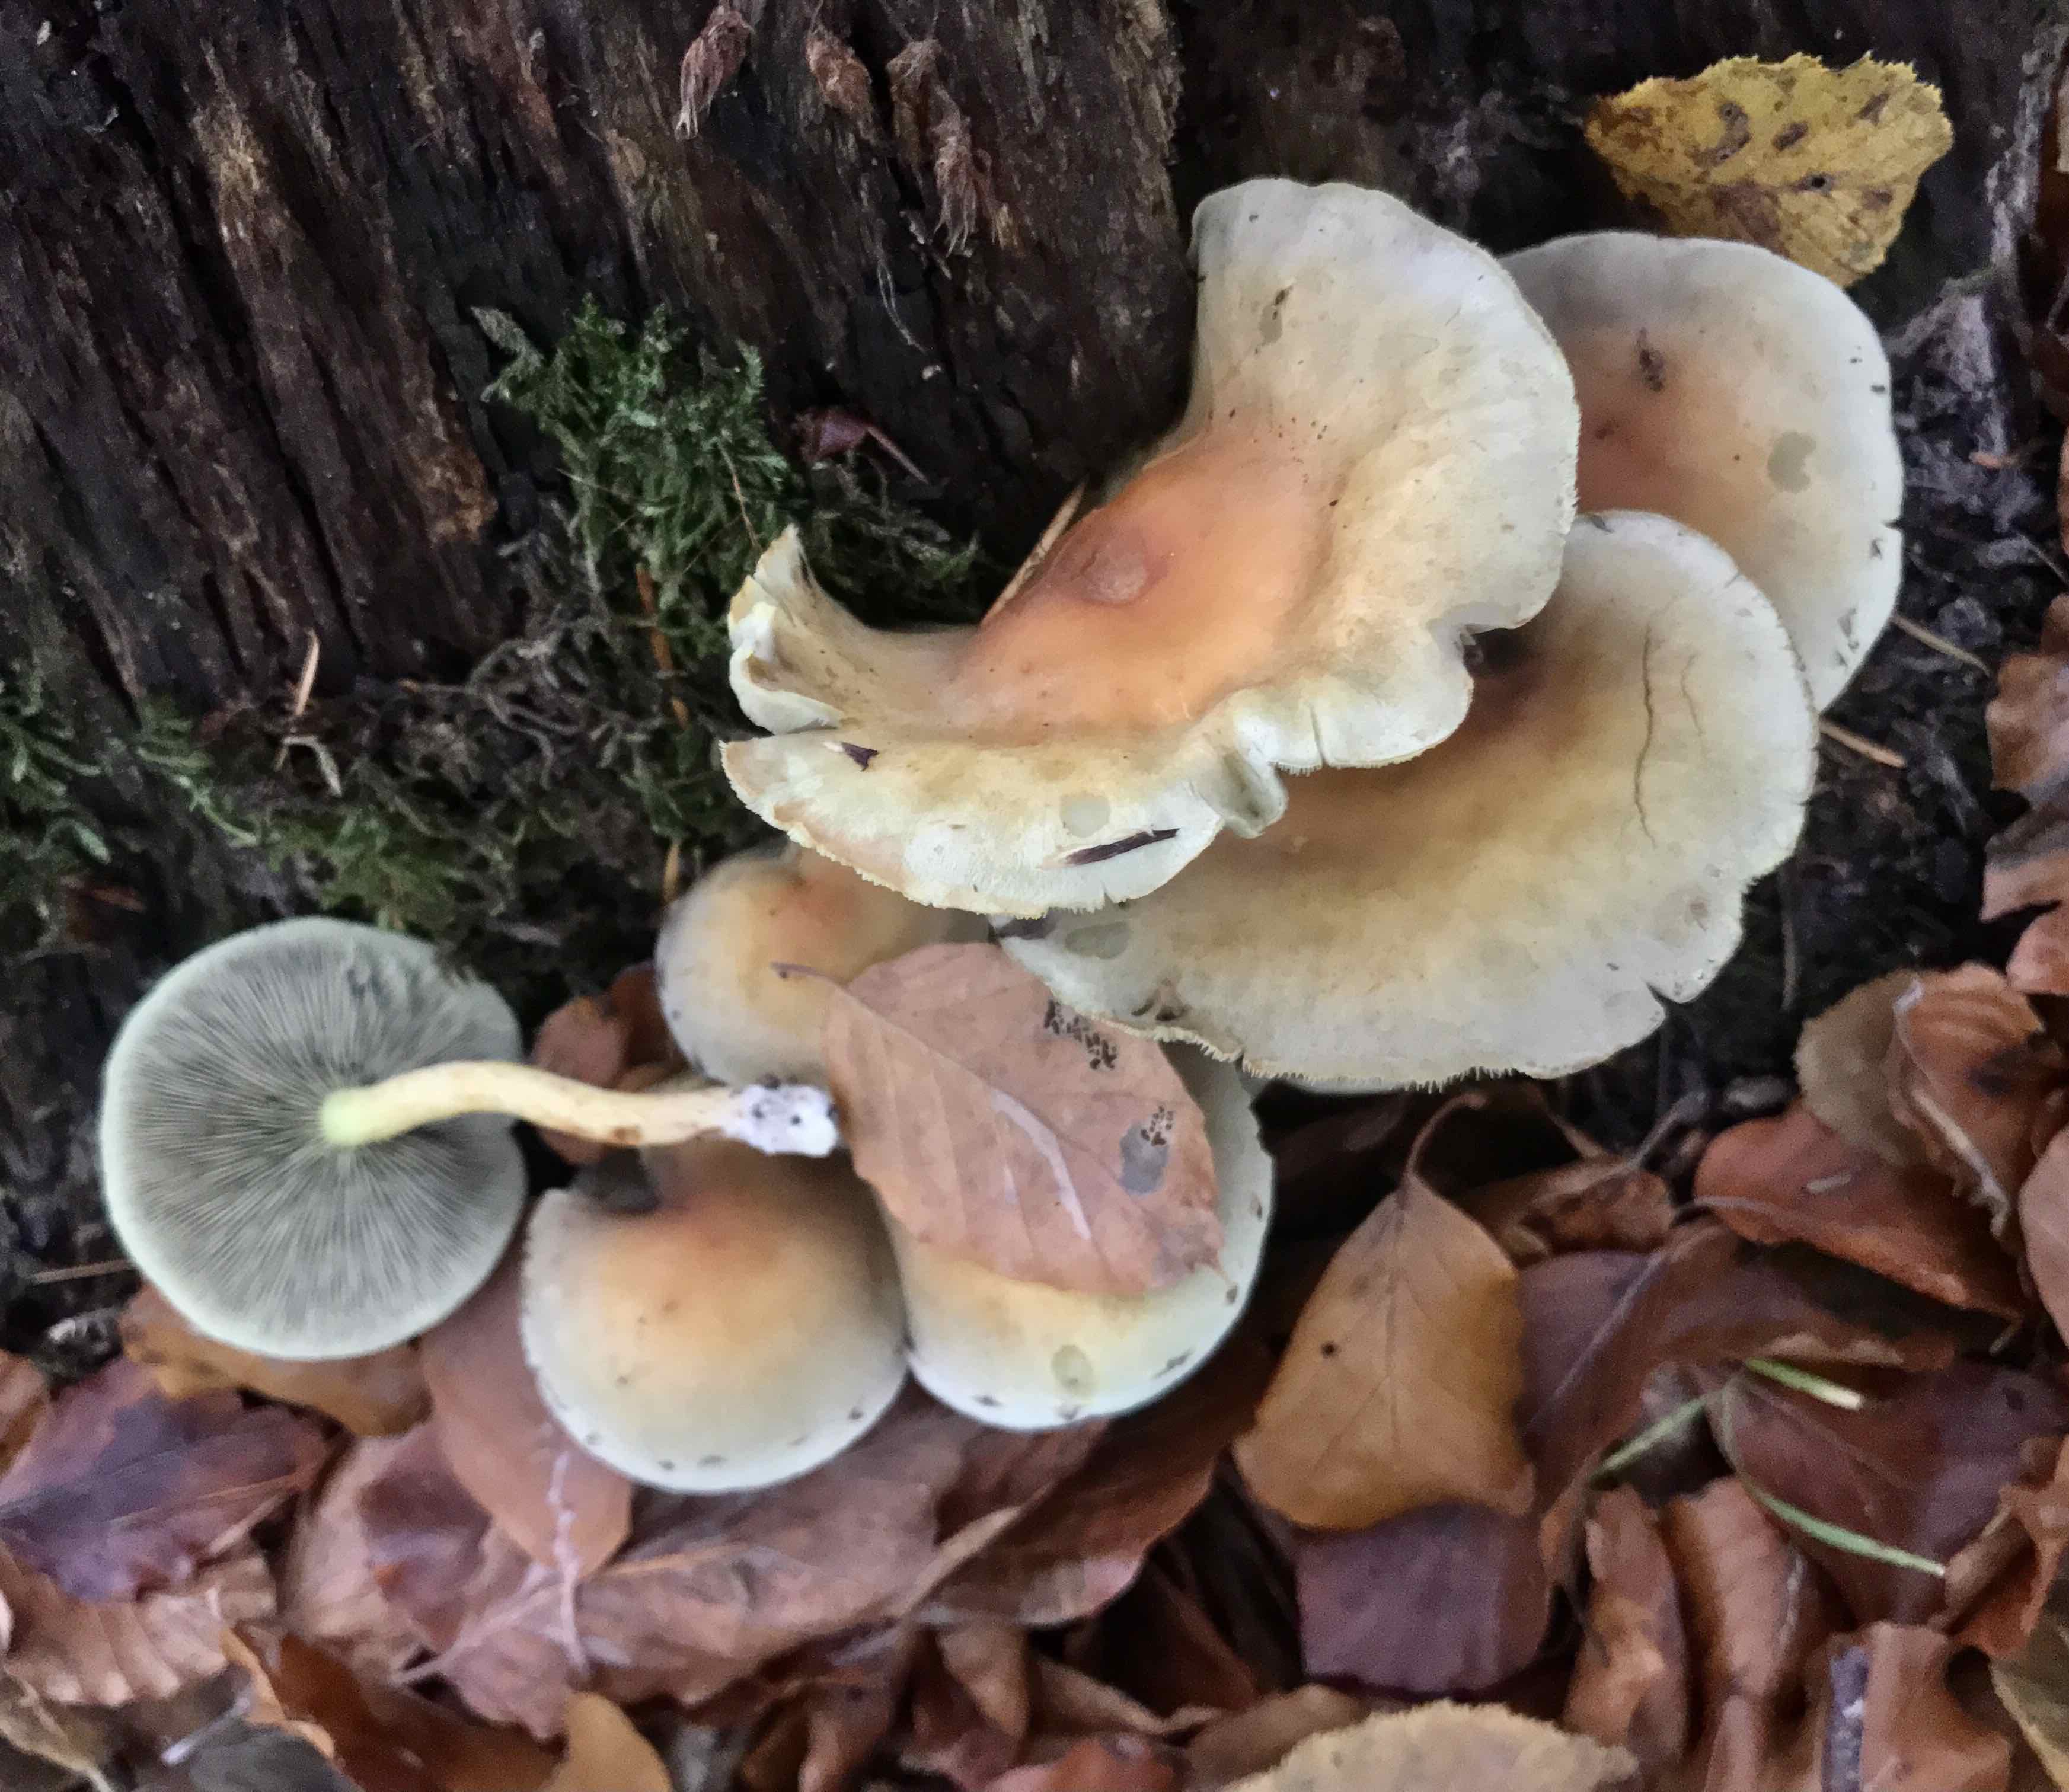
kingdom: Fungi
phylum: Basidiomycota
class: Agaricomycetes
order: Agaricales
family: Strophariaceae
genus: Hypholoma
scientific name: Hypholoma fasciculare
